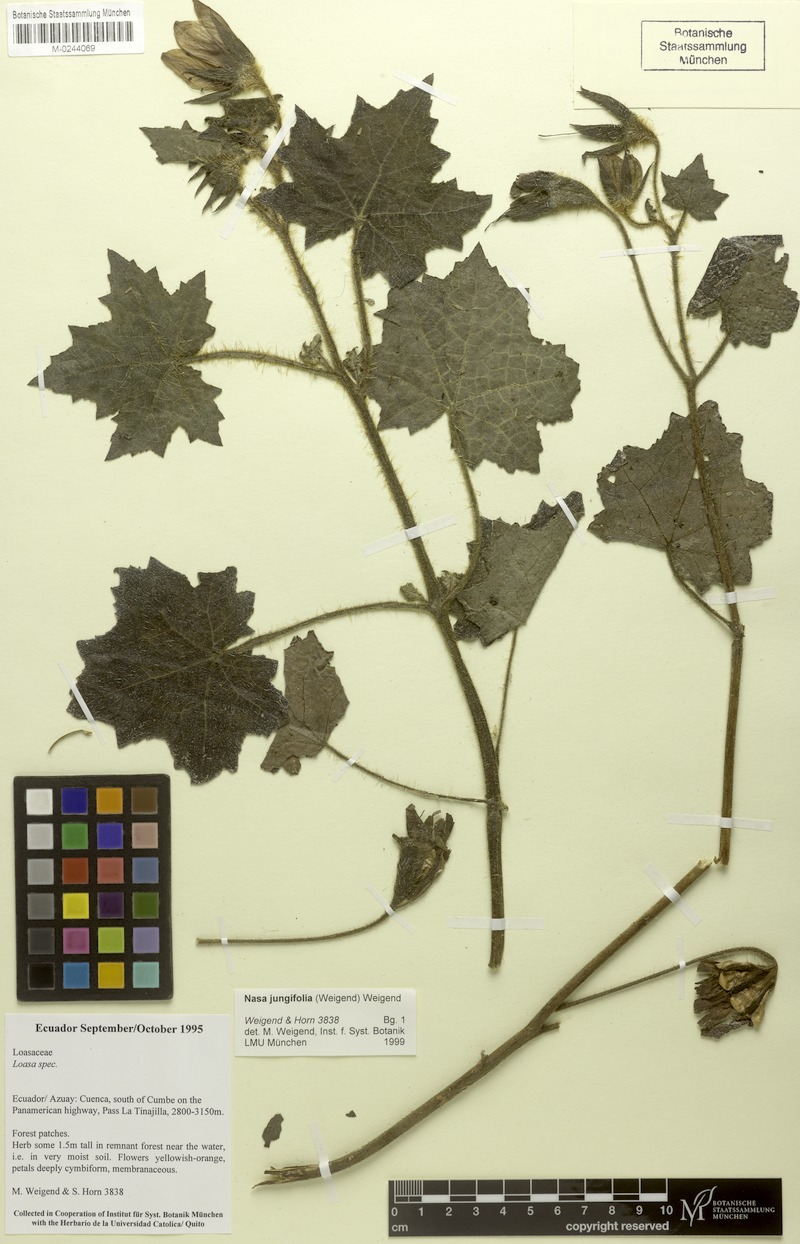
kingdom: Plantae
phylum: Tracheophyta
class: Magnoliopsida
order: Cornales
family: Loasaceae
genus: Nasa
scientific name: Nasa jungiifolia
